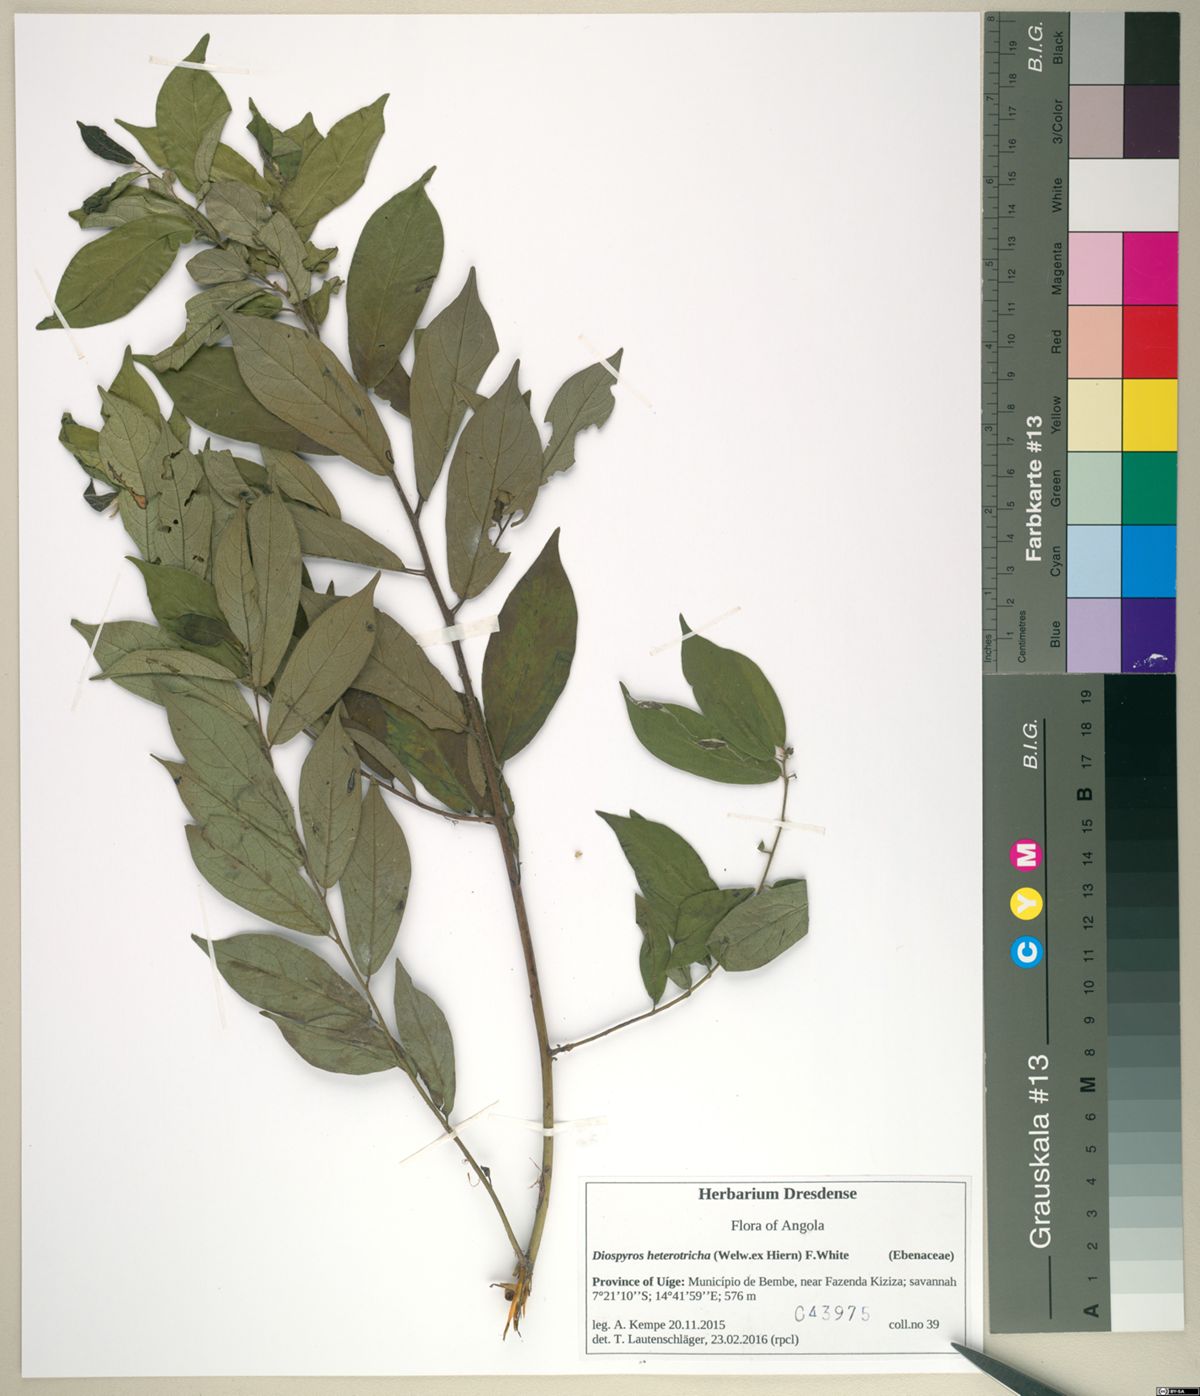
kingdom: Plantae
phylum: Tracheophyta
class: Magnoliopsida
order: Ericales
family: Ebenaceae
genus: Diospyros
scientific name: Diospyros heterotricha
